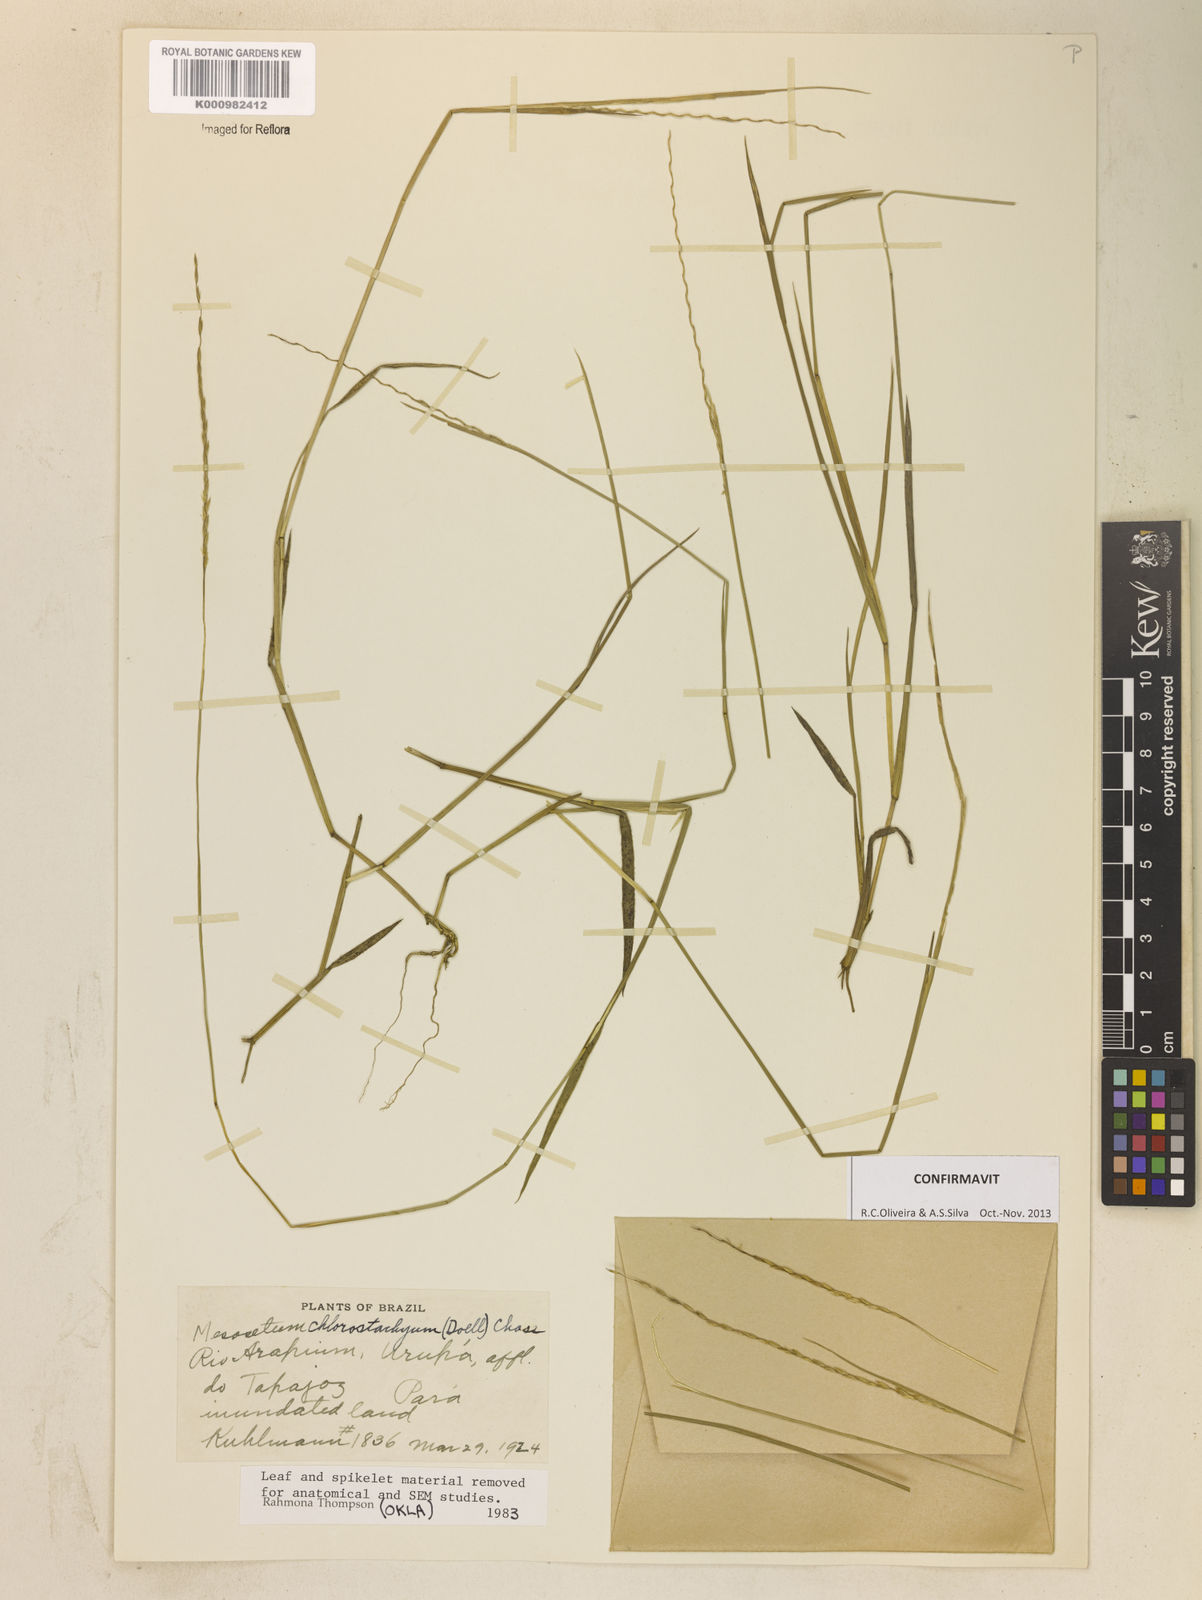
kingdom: Plantae
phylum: Tracheophyta
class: Liliopsida
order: Poales
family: Poaceae
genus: Mesosetum
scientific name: Mesosetum
